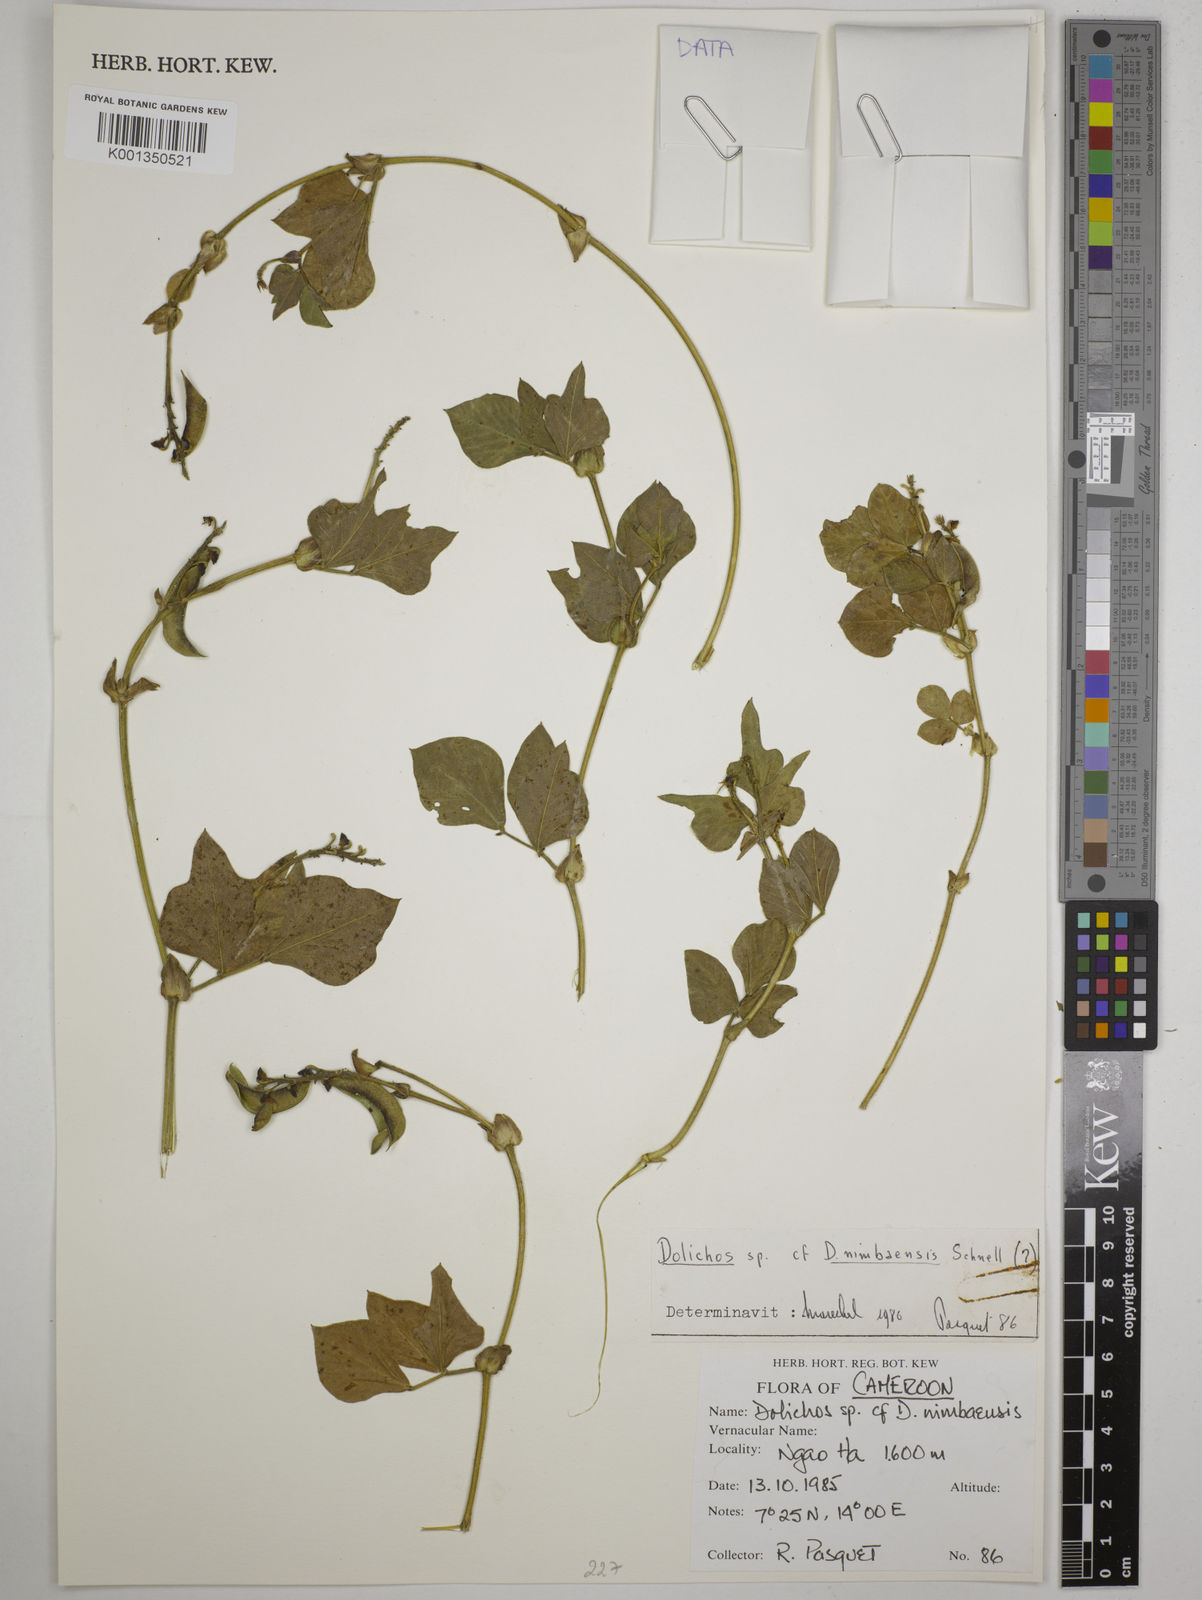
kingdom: Plantae
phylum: Tracheophyta
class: Magnoliopsida
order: Fabales
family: Fabaceae
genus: Dolichos
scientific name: Dolichos nimbaensis
